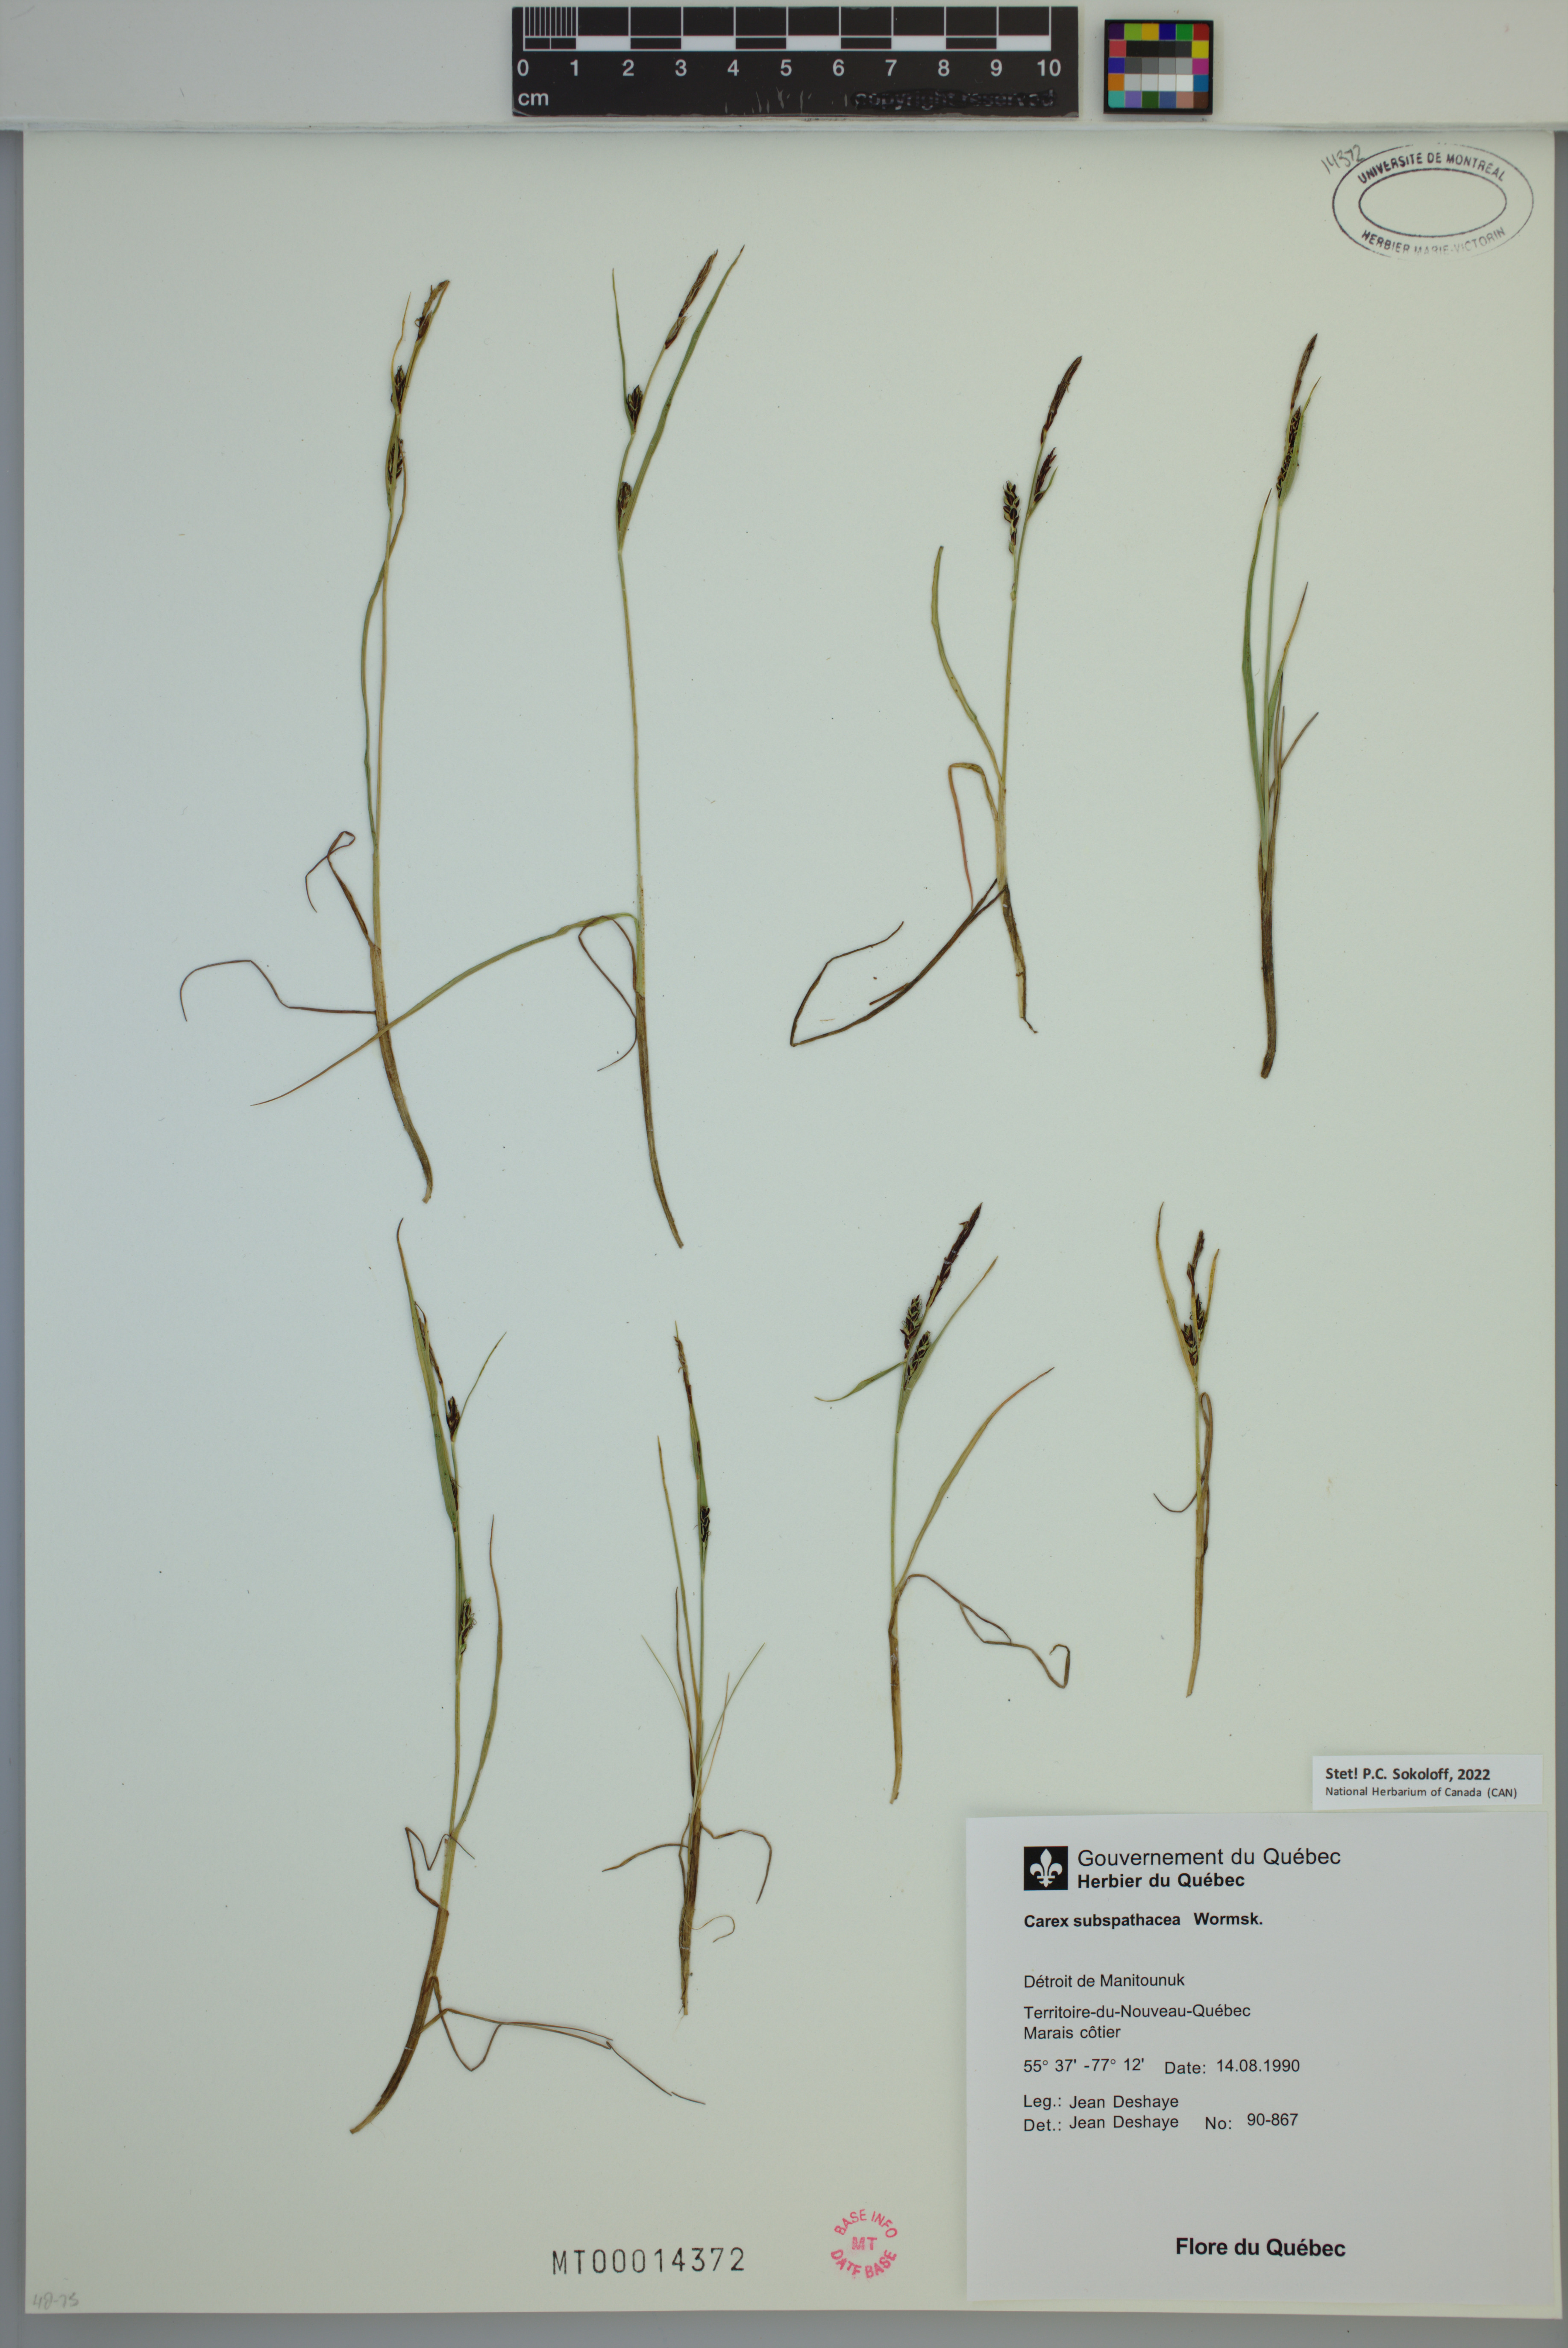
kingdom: Plantae
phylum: Tracheophyta
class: Liliopsida
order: Poales
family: Cyperaceae
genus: Carex
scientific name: Carex subspathacea
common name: Hoppner's sedge
